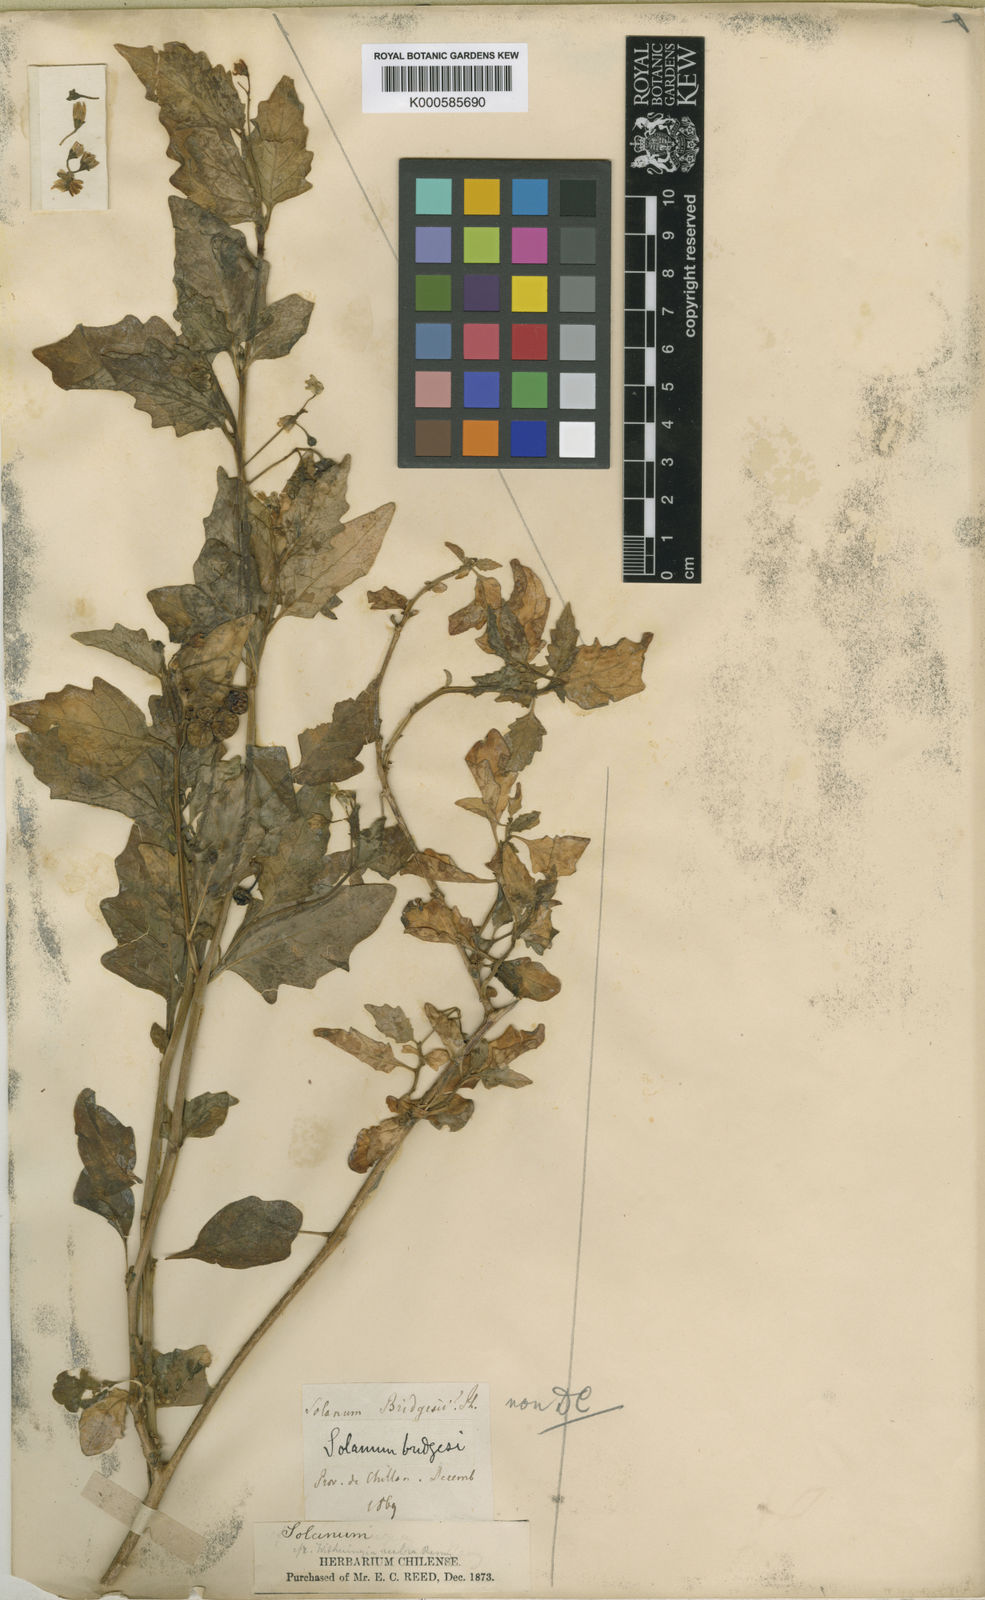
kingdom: Plantae
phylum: Tracheophyta
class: Magnoliopsida
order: Solanales
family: Solanaceae
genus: Solanum
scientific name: Solanum furcatum
